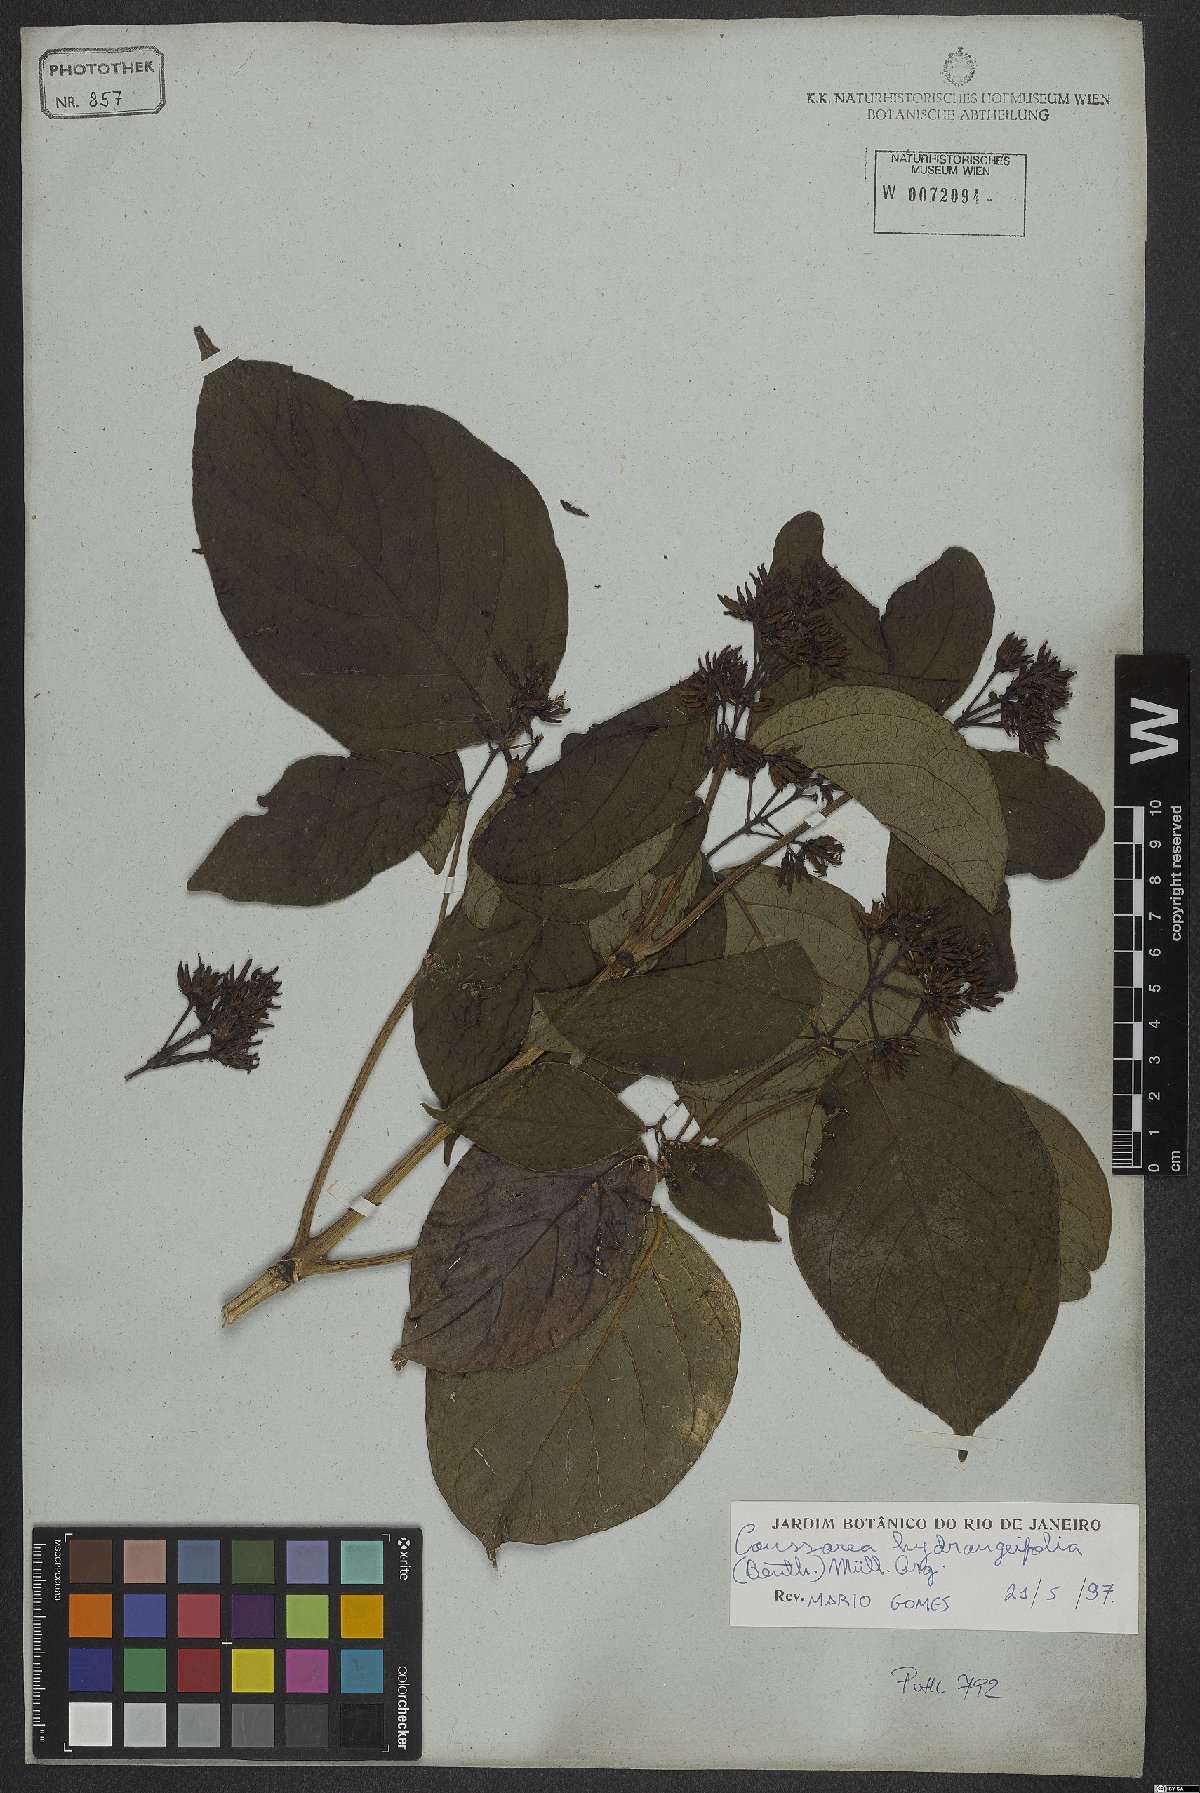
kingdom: Plantae
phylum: Tracheophyta
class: Magnoliopsida
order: Gentianales
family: Rubiaceae
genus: Coussarea
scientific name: Coussarea hydrangeifolia
